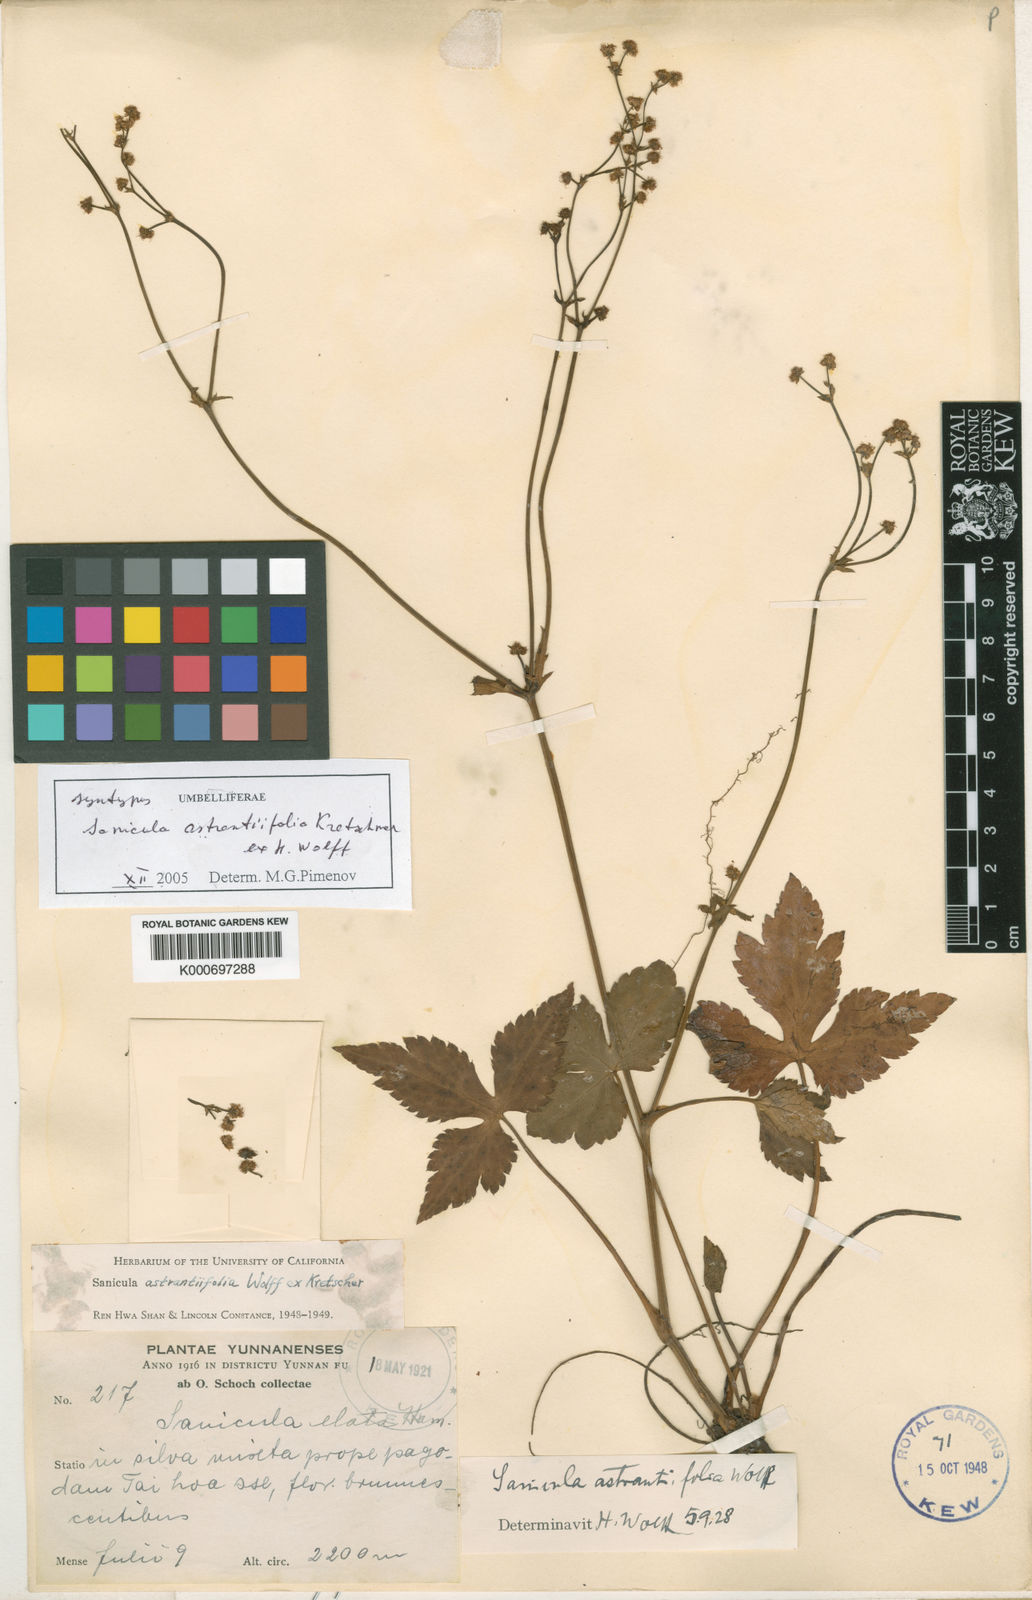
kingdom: Plantae
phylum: Tracheophyta
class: Magnoliopsida
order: Apiales
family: Apiaceae
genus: Sanicula
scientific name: Sanicula astrantiifolia
